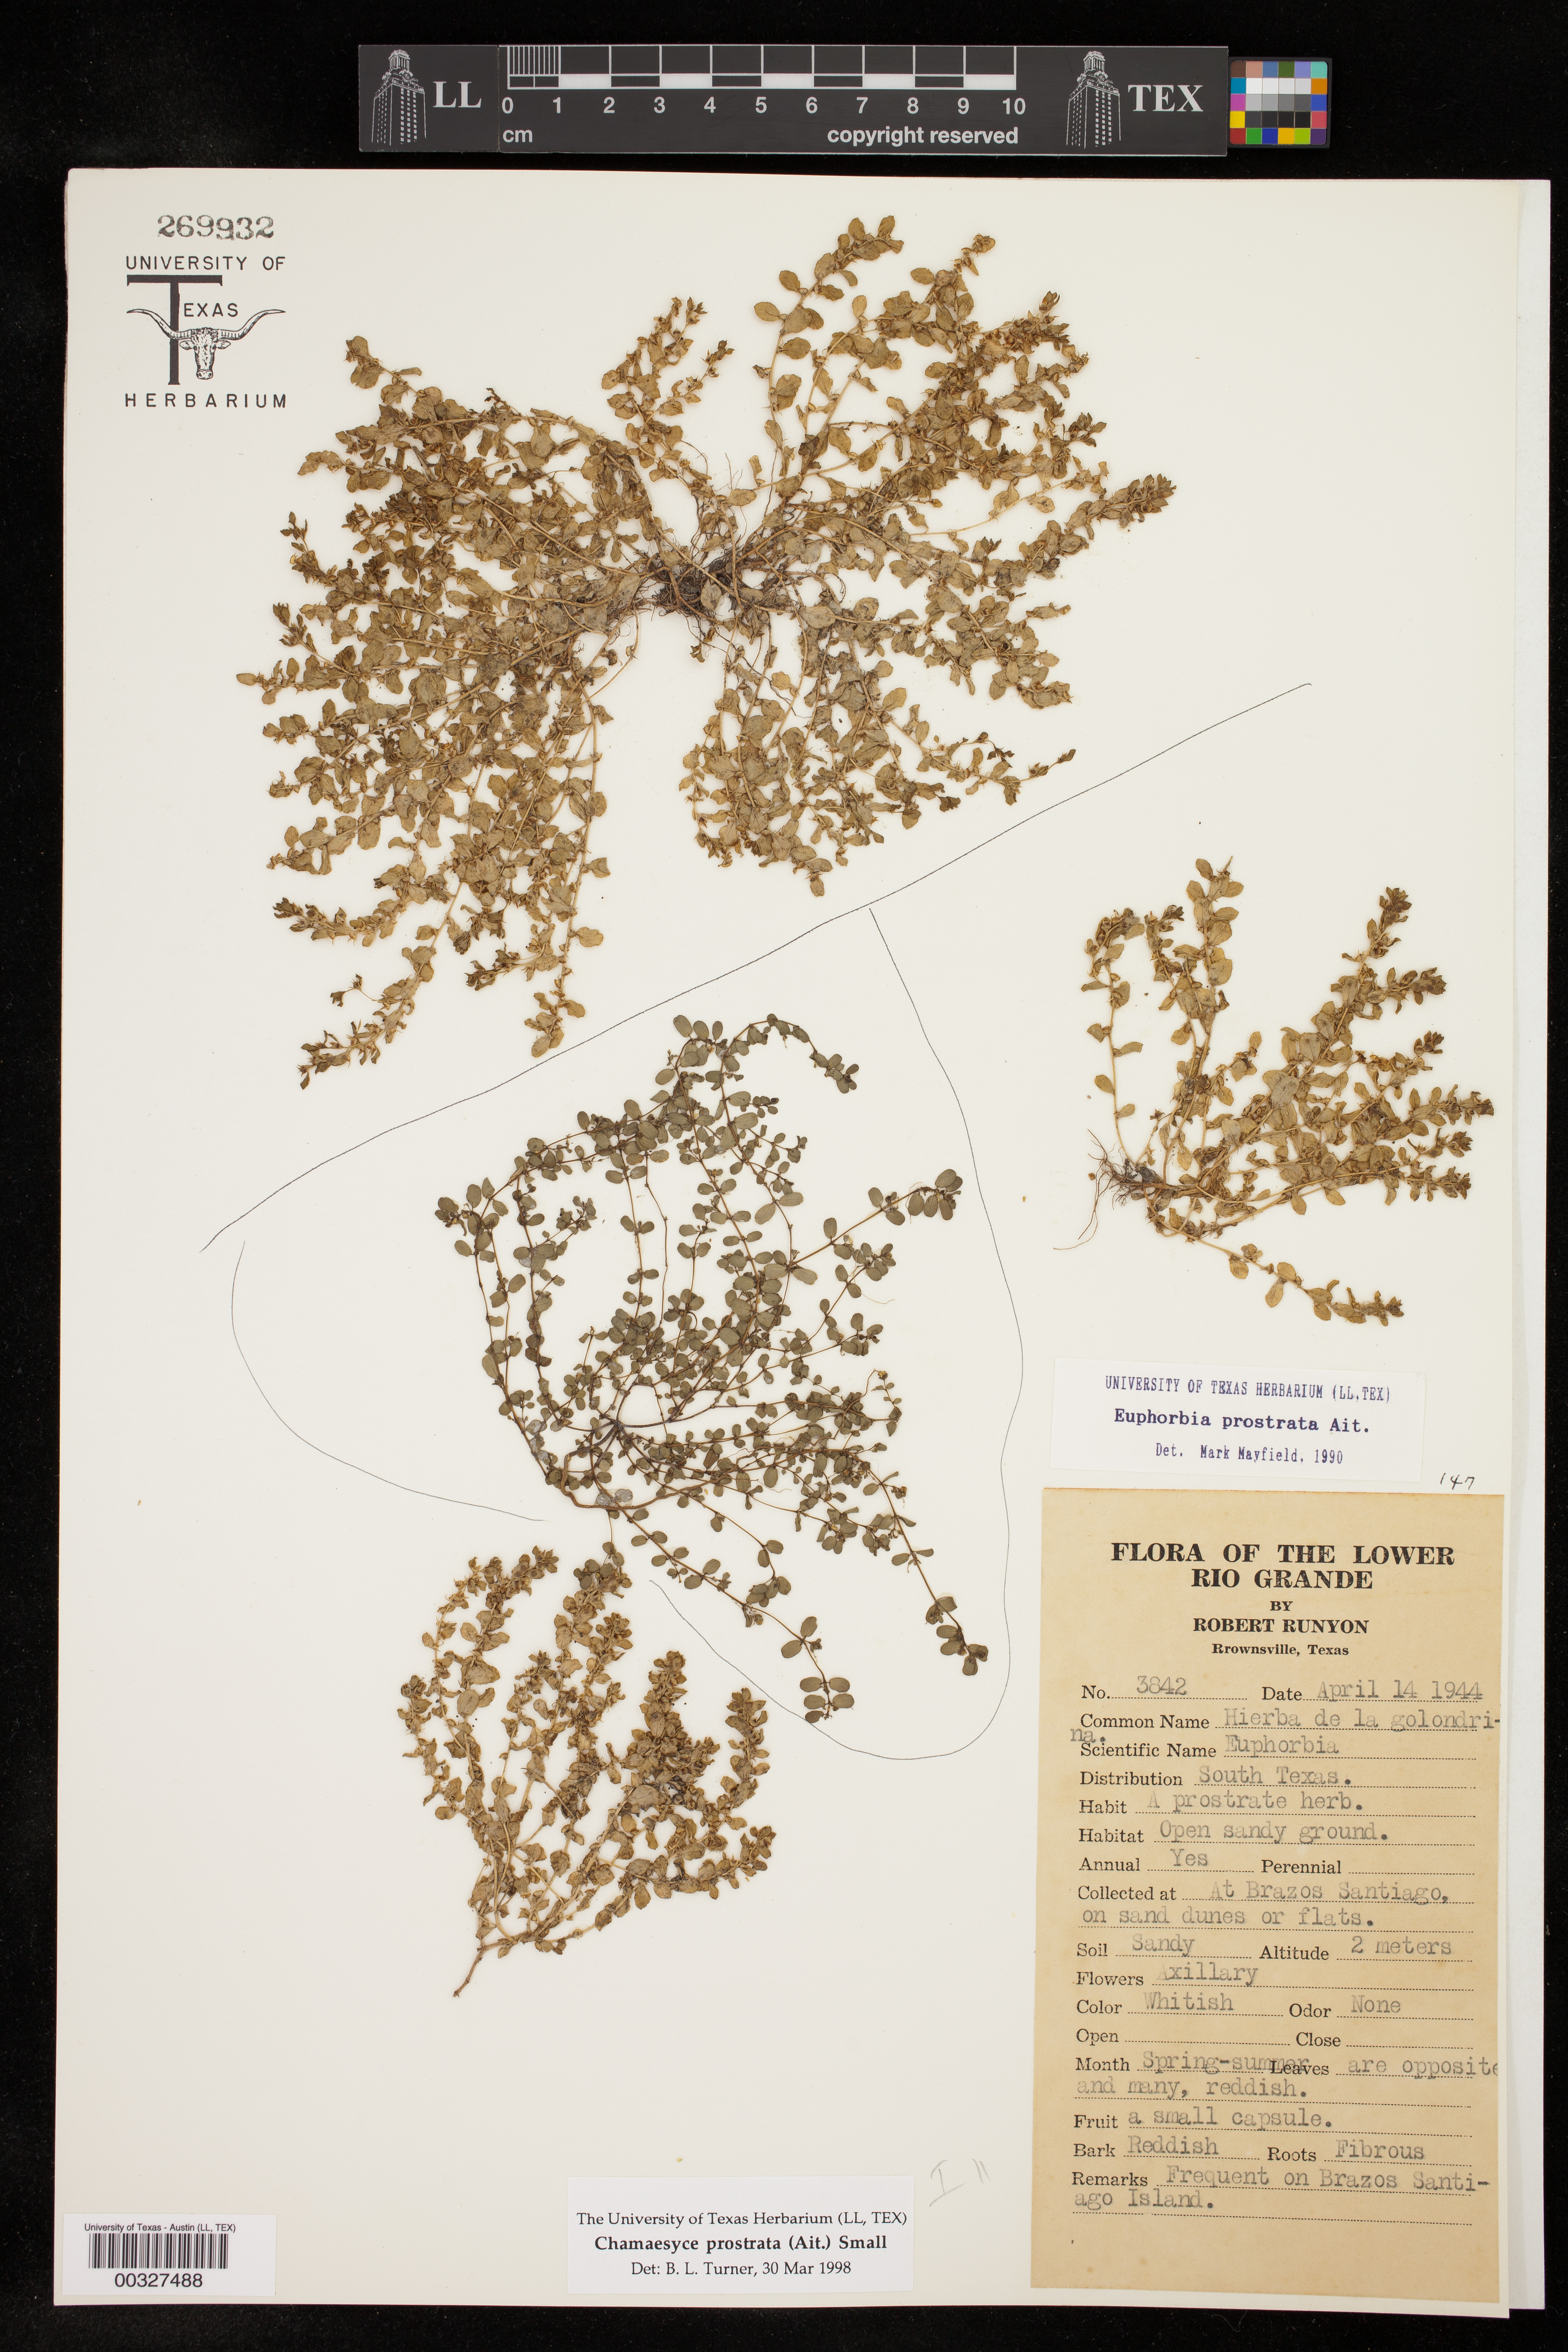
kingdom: Plantae
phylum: Tracheophyta
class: Magnoliopsida
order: Malpighiales
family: Euphorbiaceae
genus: Euphorbia
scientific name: Euphorbia prostrata
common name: Prostrate sandmat
